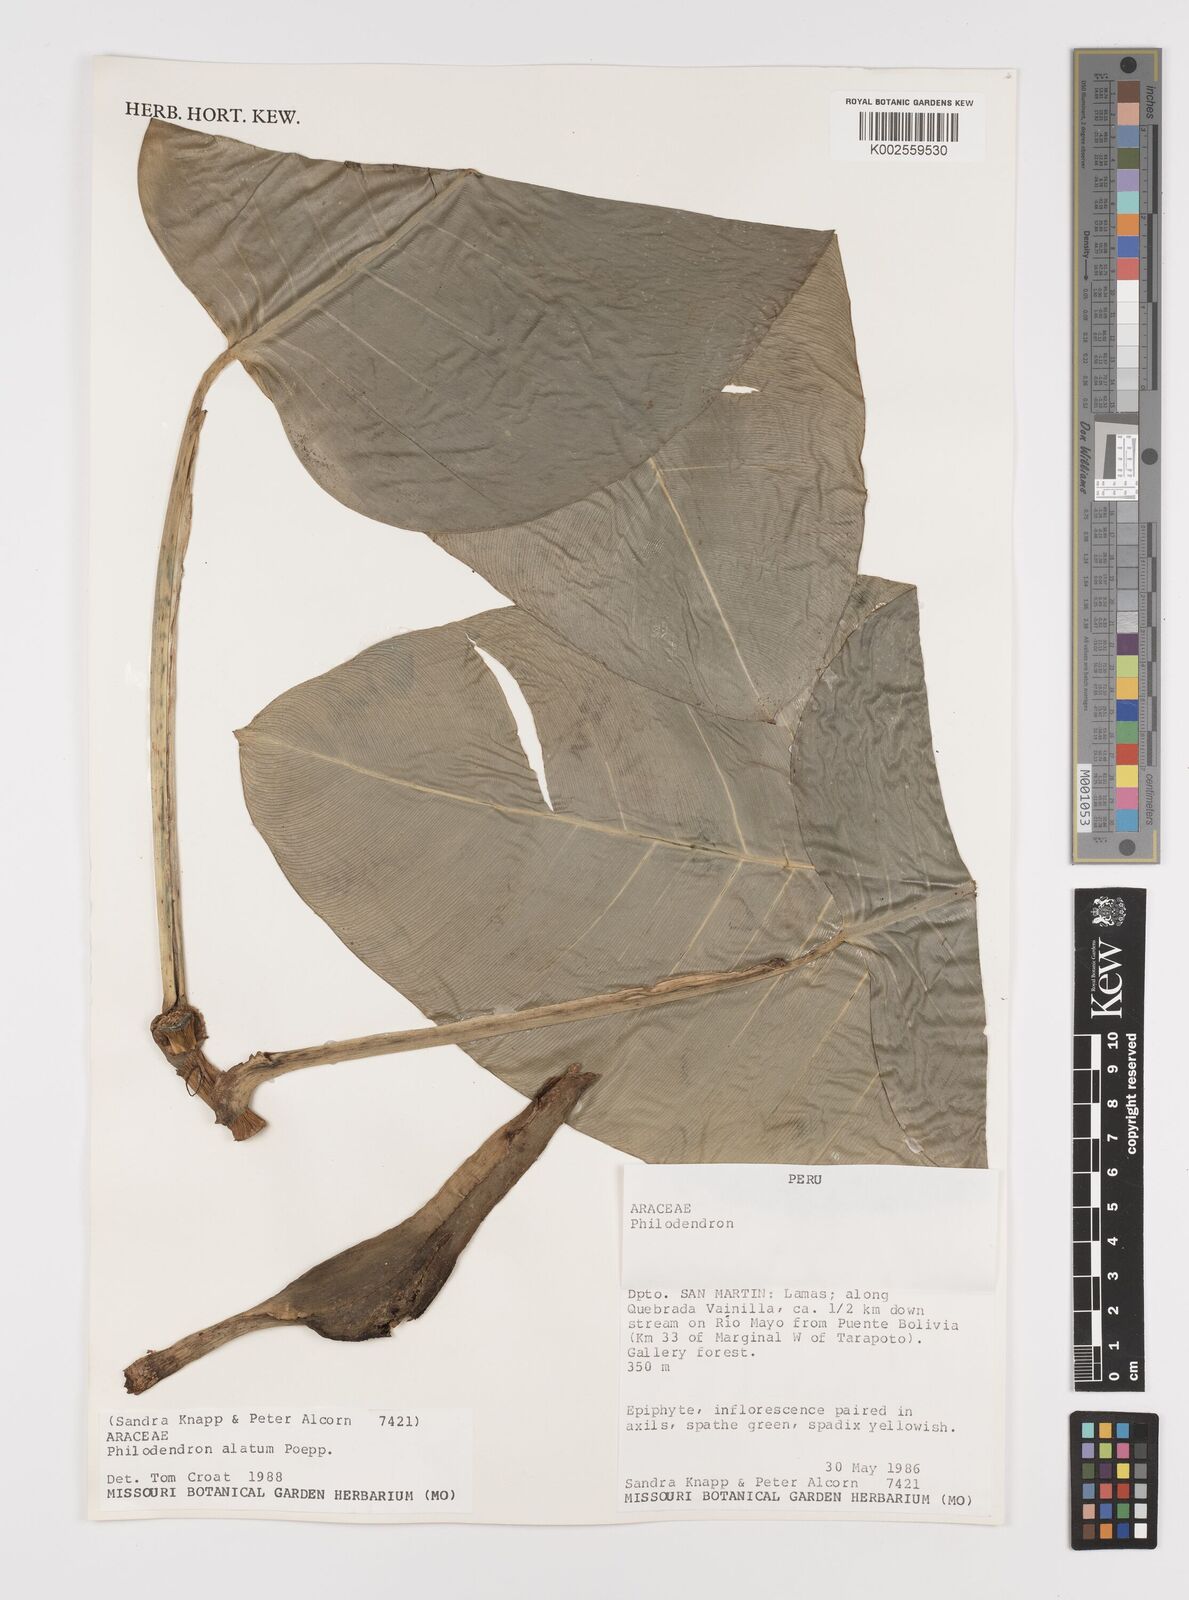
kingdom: Plantae
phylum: Tracheophyta
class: Liliopsida
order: Alismatales
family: Araceae
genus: Philodendron
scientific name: Philodendron alatum
